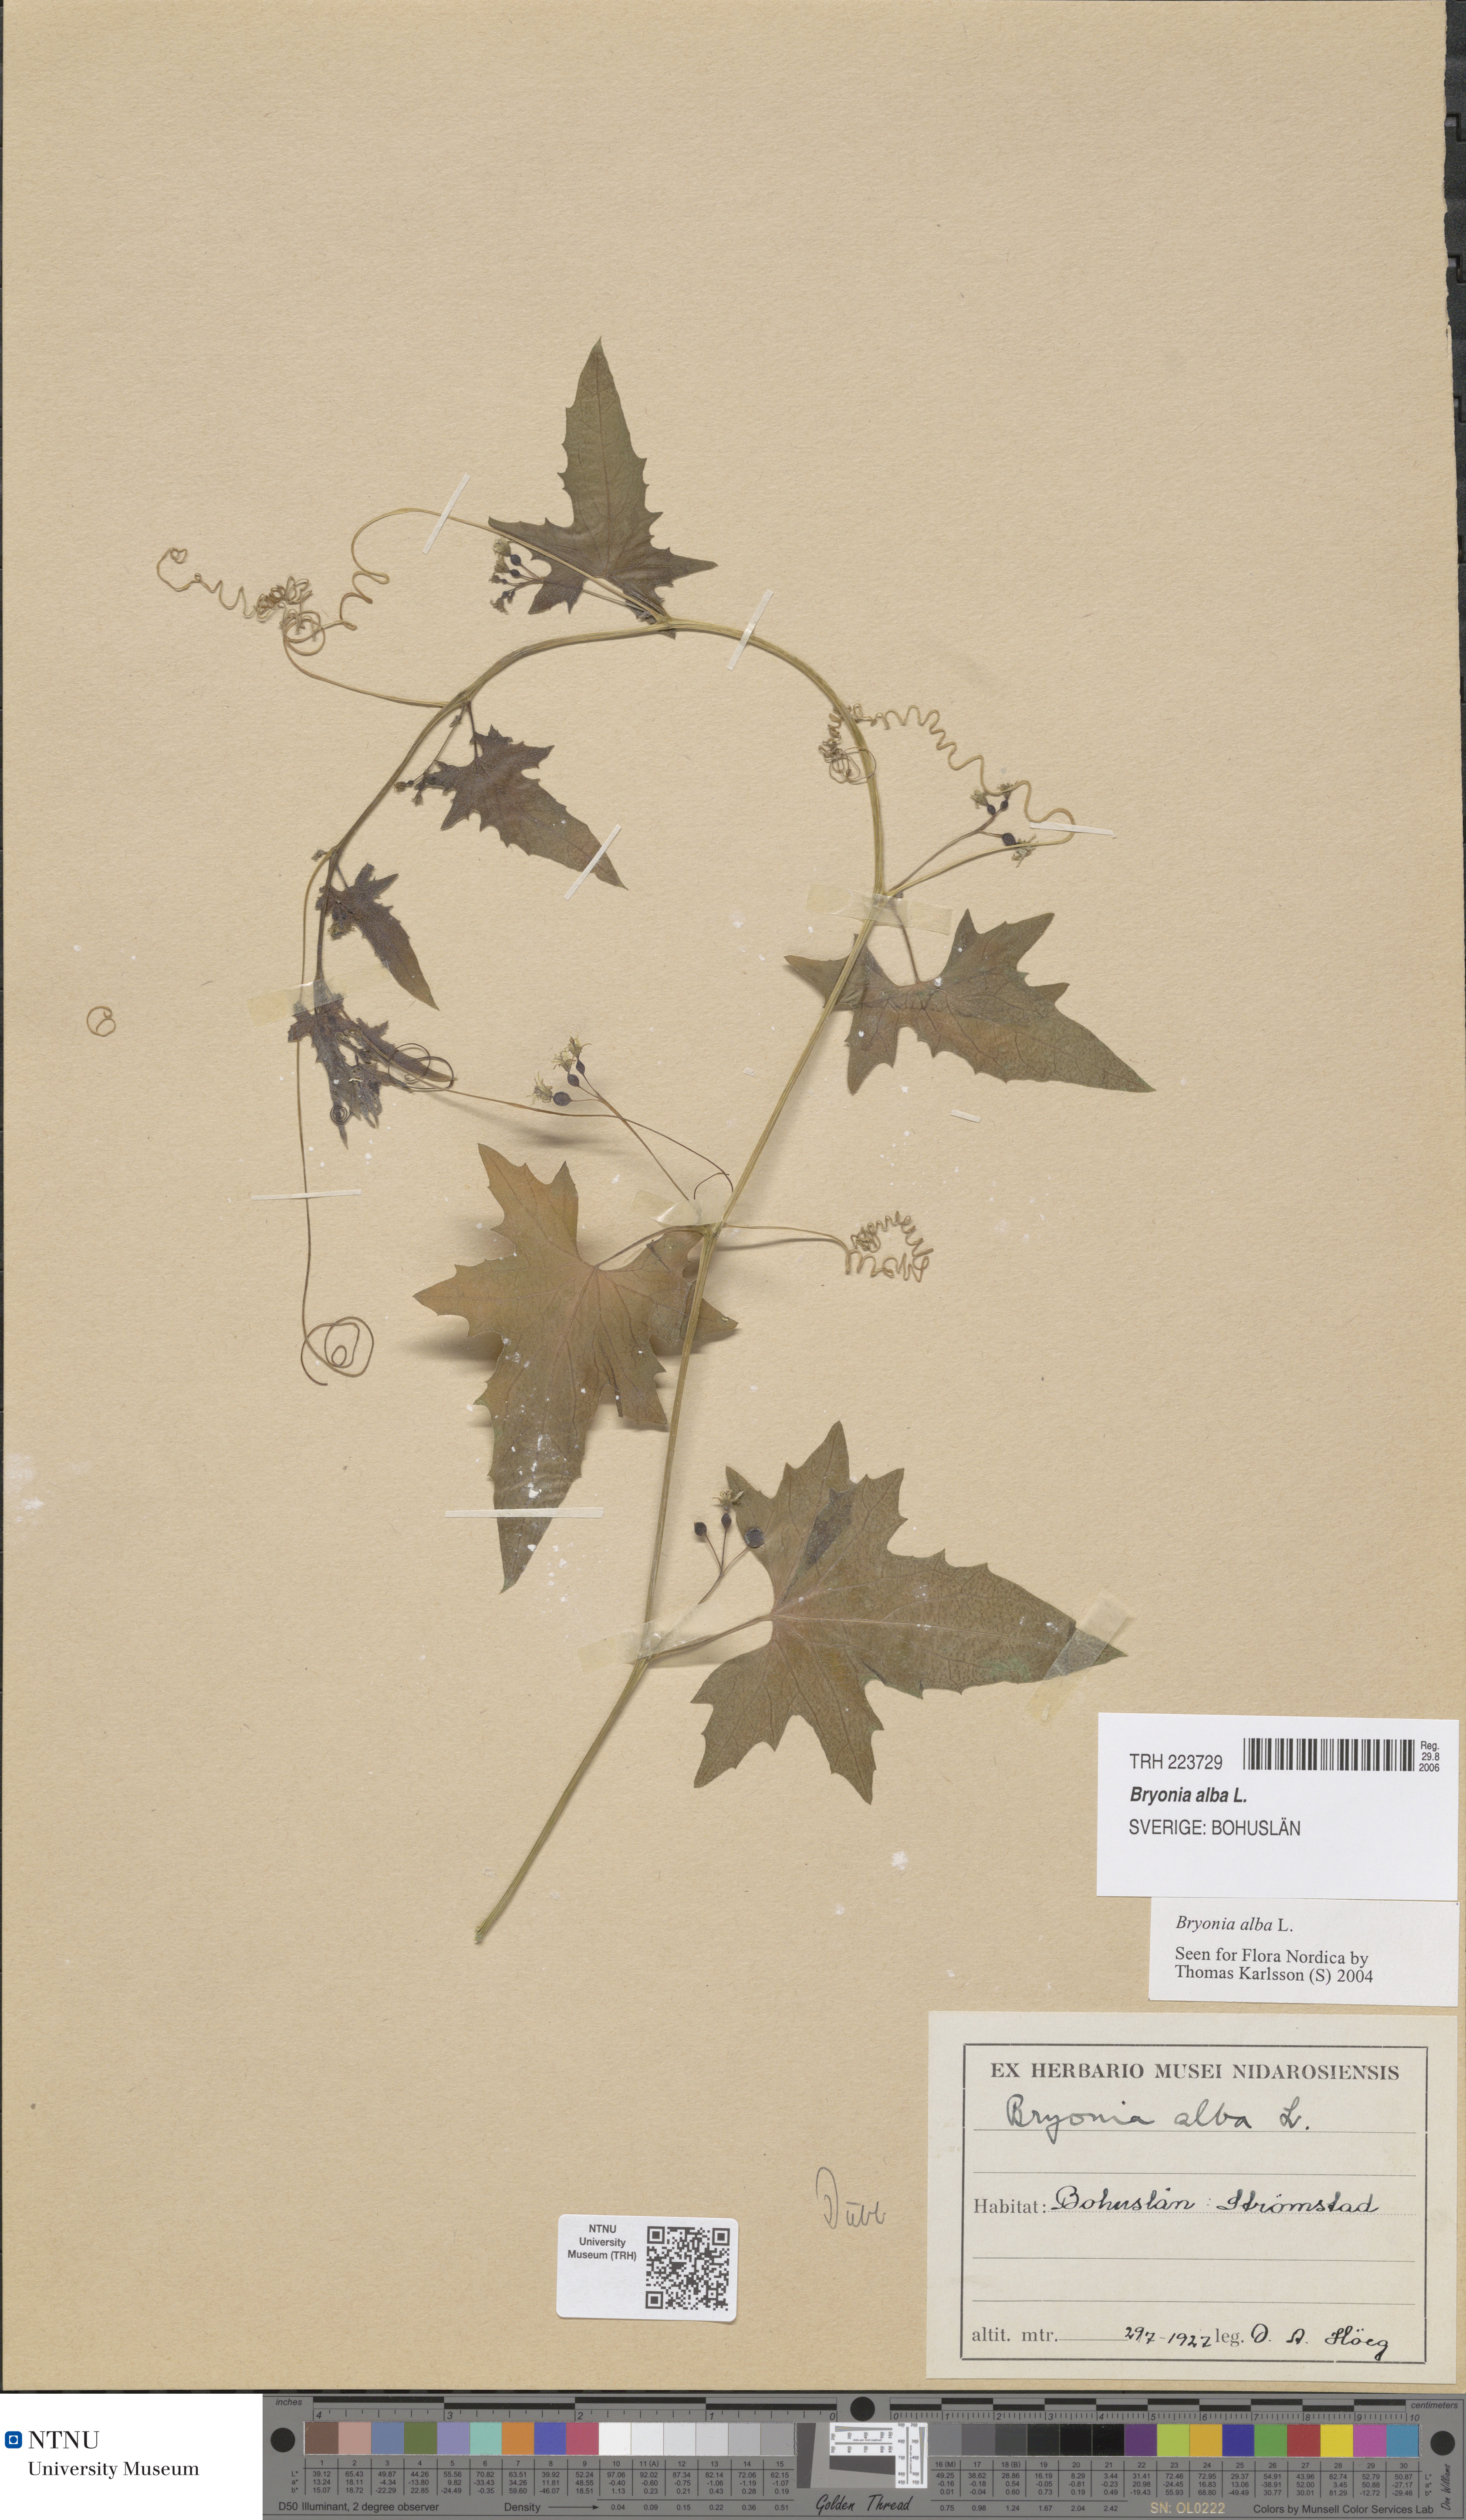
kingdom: Plantae
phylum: Tracheophyta
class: Magnoliopsida
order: Cucurbitales
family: Cucurbitaceae
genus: Bryonia
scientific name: Bryonia alba
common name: White bryony
